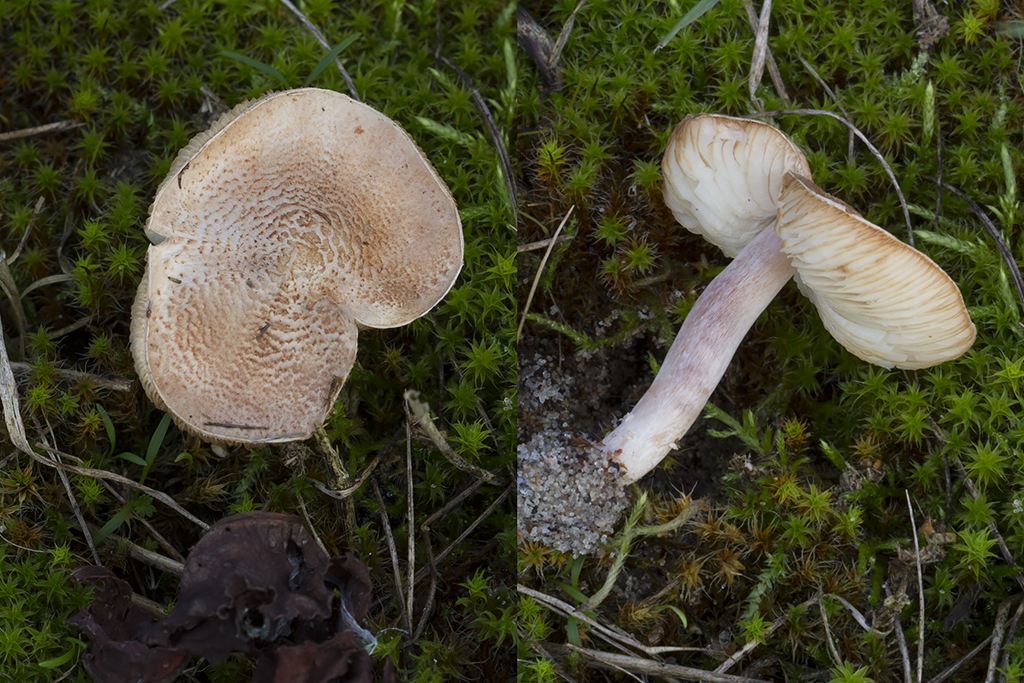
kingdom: Fungi
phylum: Basidiomycota
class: Agaricomycetes
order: Agaricales
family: Agaricaceae
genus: Lepiota
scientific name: Lepiota subincarnata
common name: kødfarvet parasolhat
